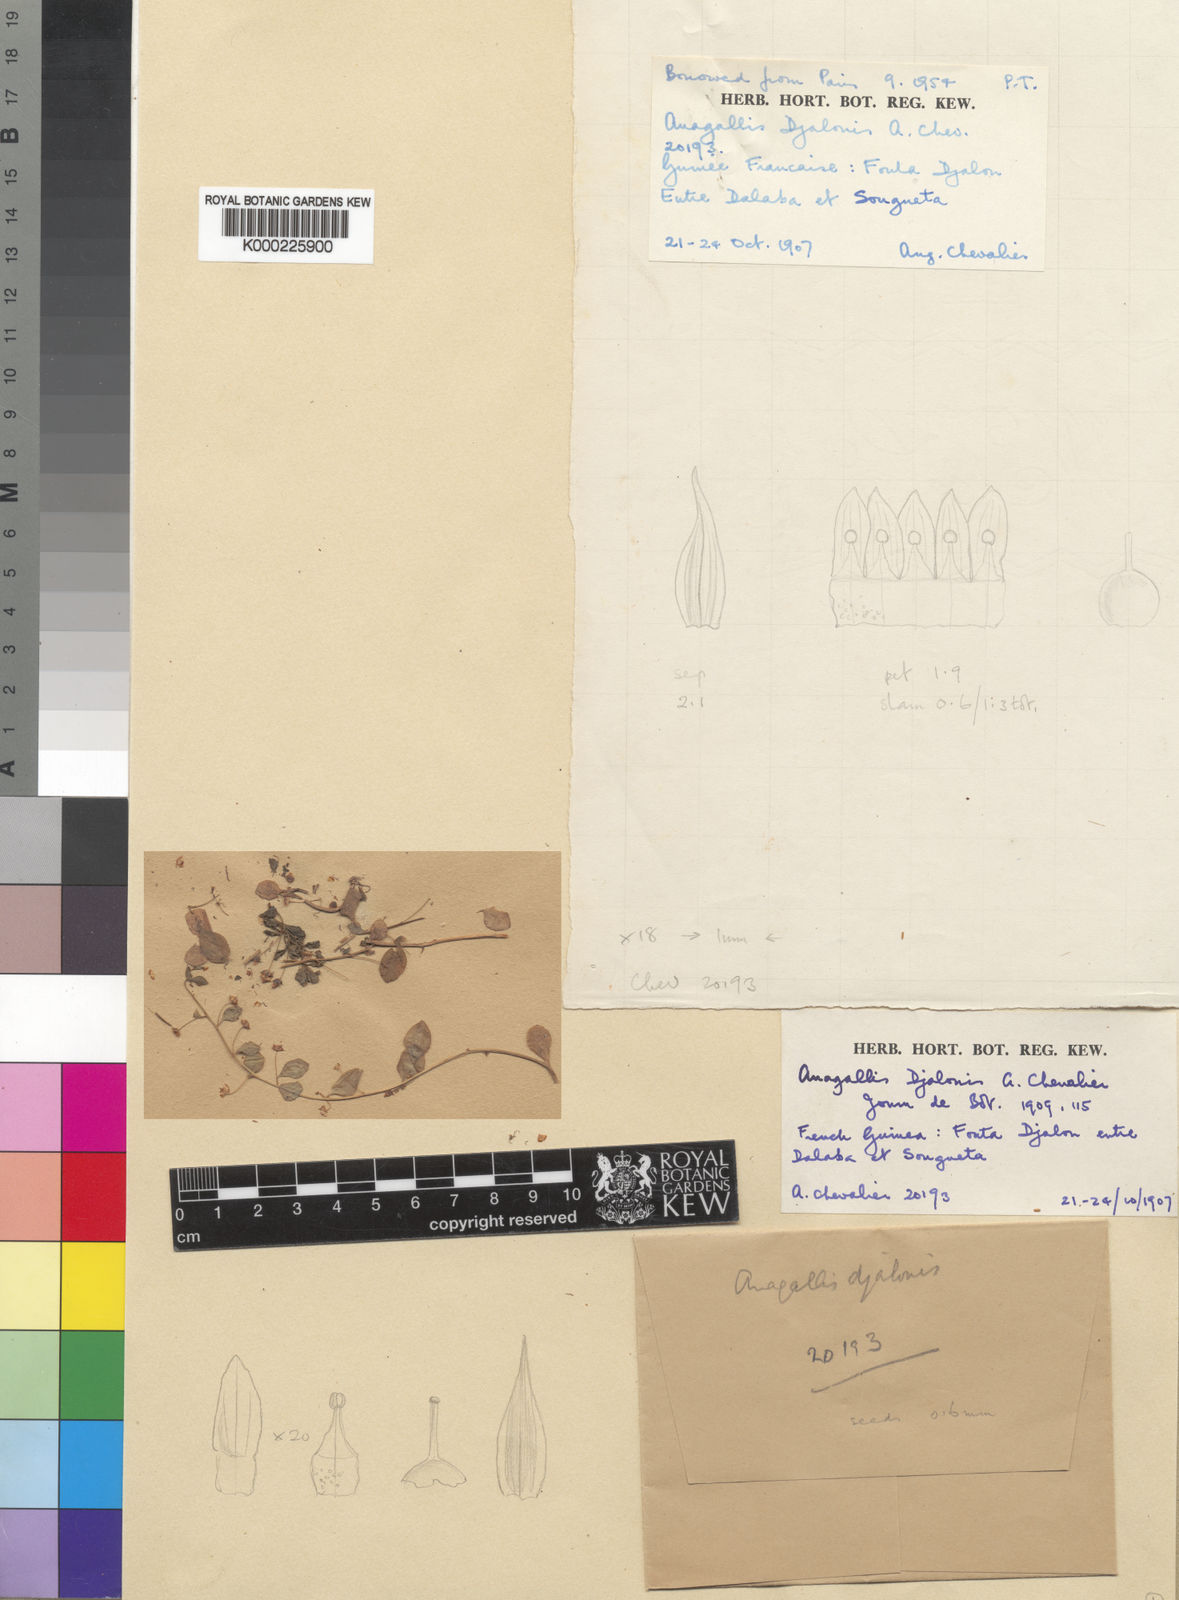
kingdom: Plantae
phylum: Tracheophyta
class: Magnoliopsida
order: Ericales
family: Primulaceae
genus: Lysimachia
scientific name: Lysimachia ovalis
